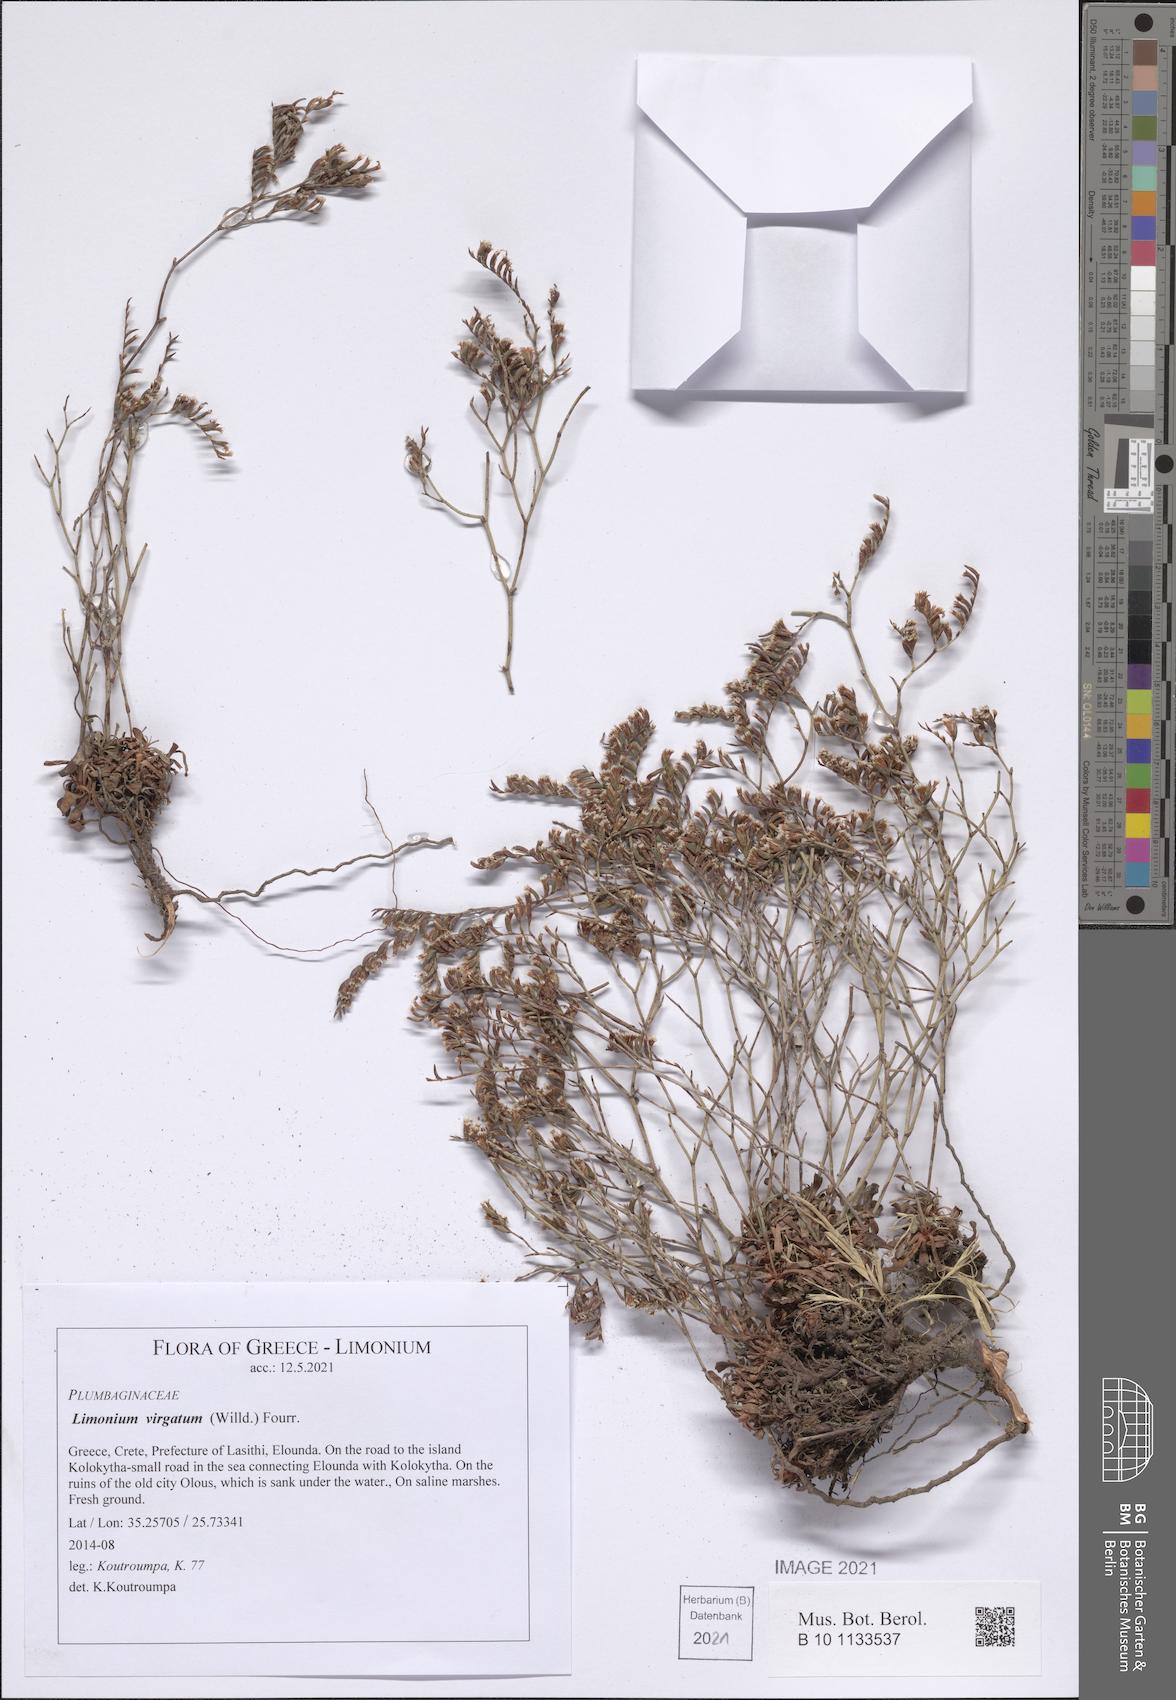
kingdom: Plantae
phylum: Tracheophyta
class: Magnoliopsida
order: Caryophyllales
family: Plumbaginaceae
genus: Limonium
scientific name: Limonium virgatum
